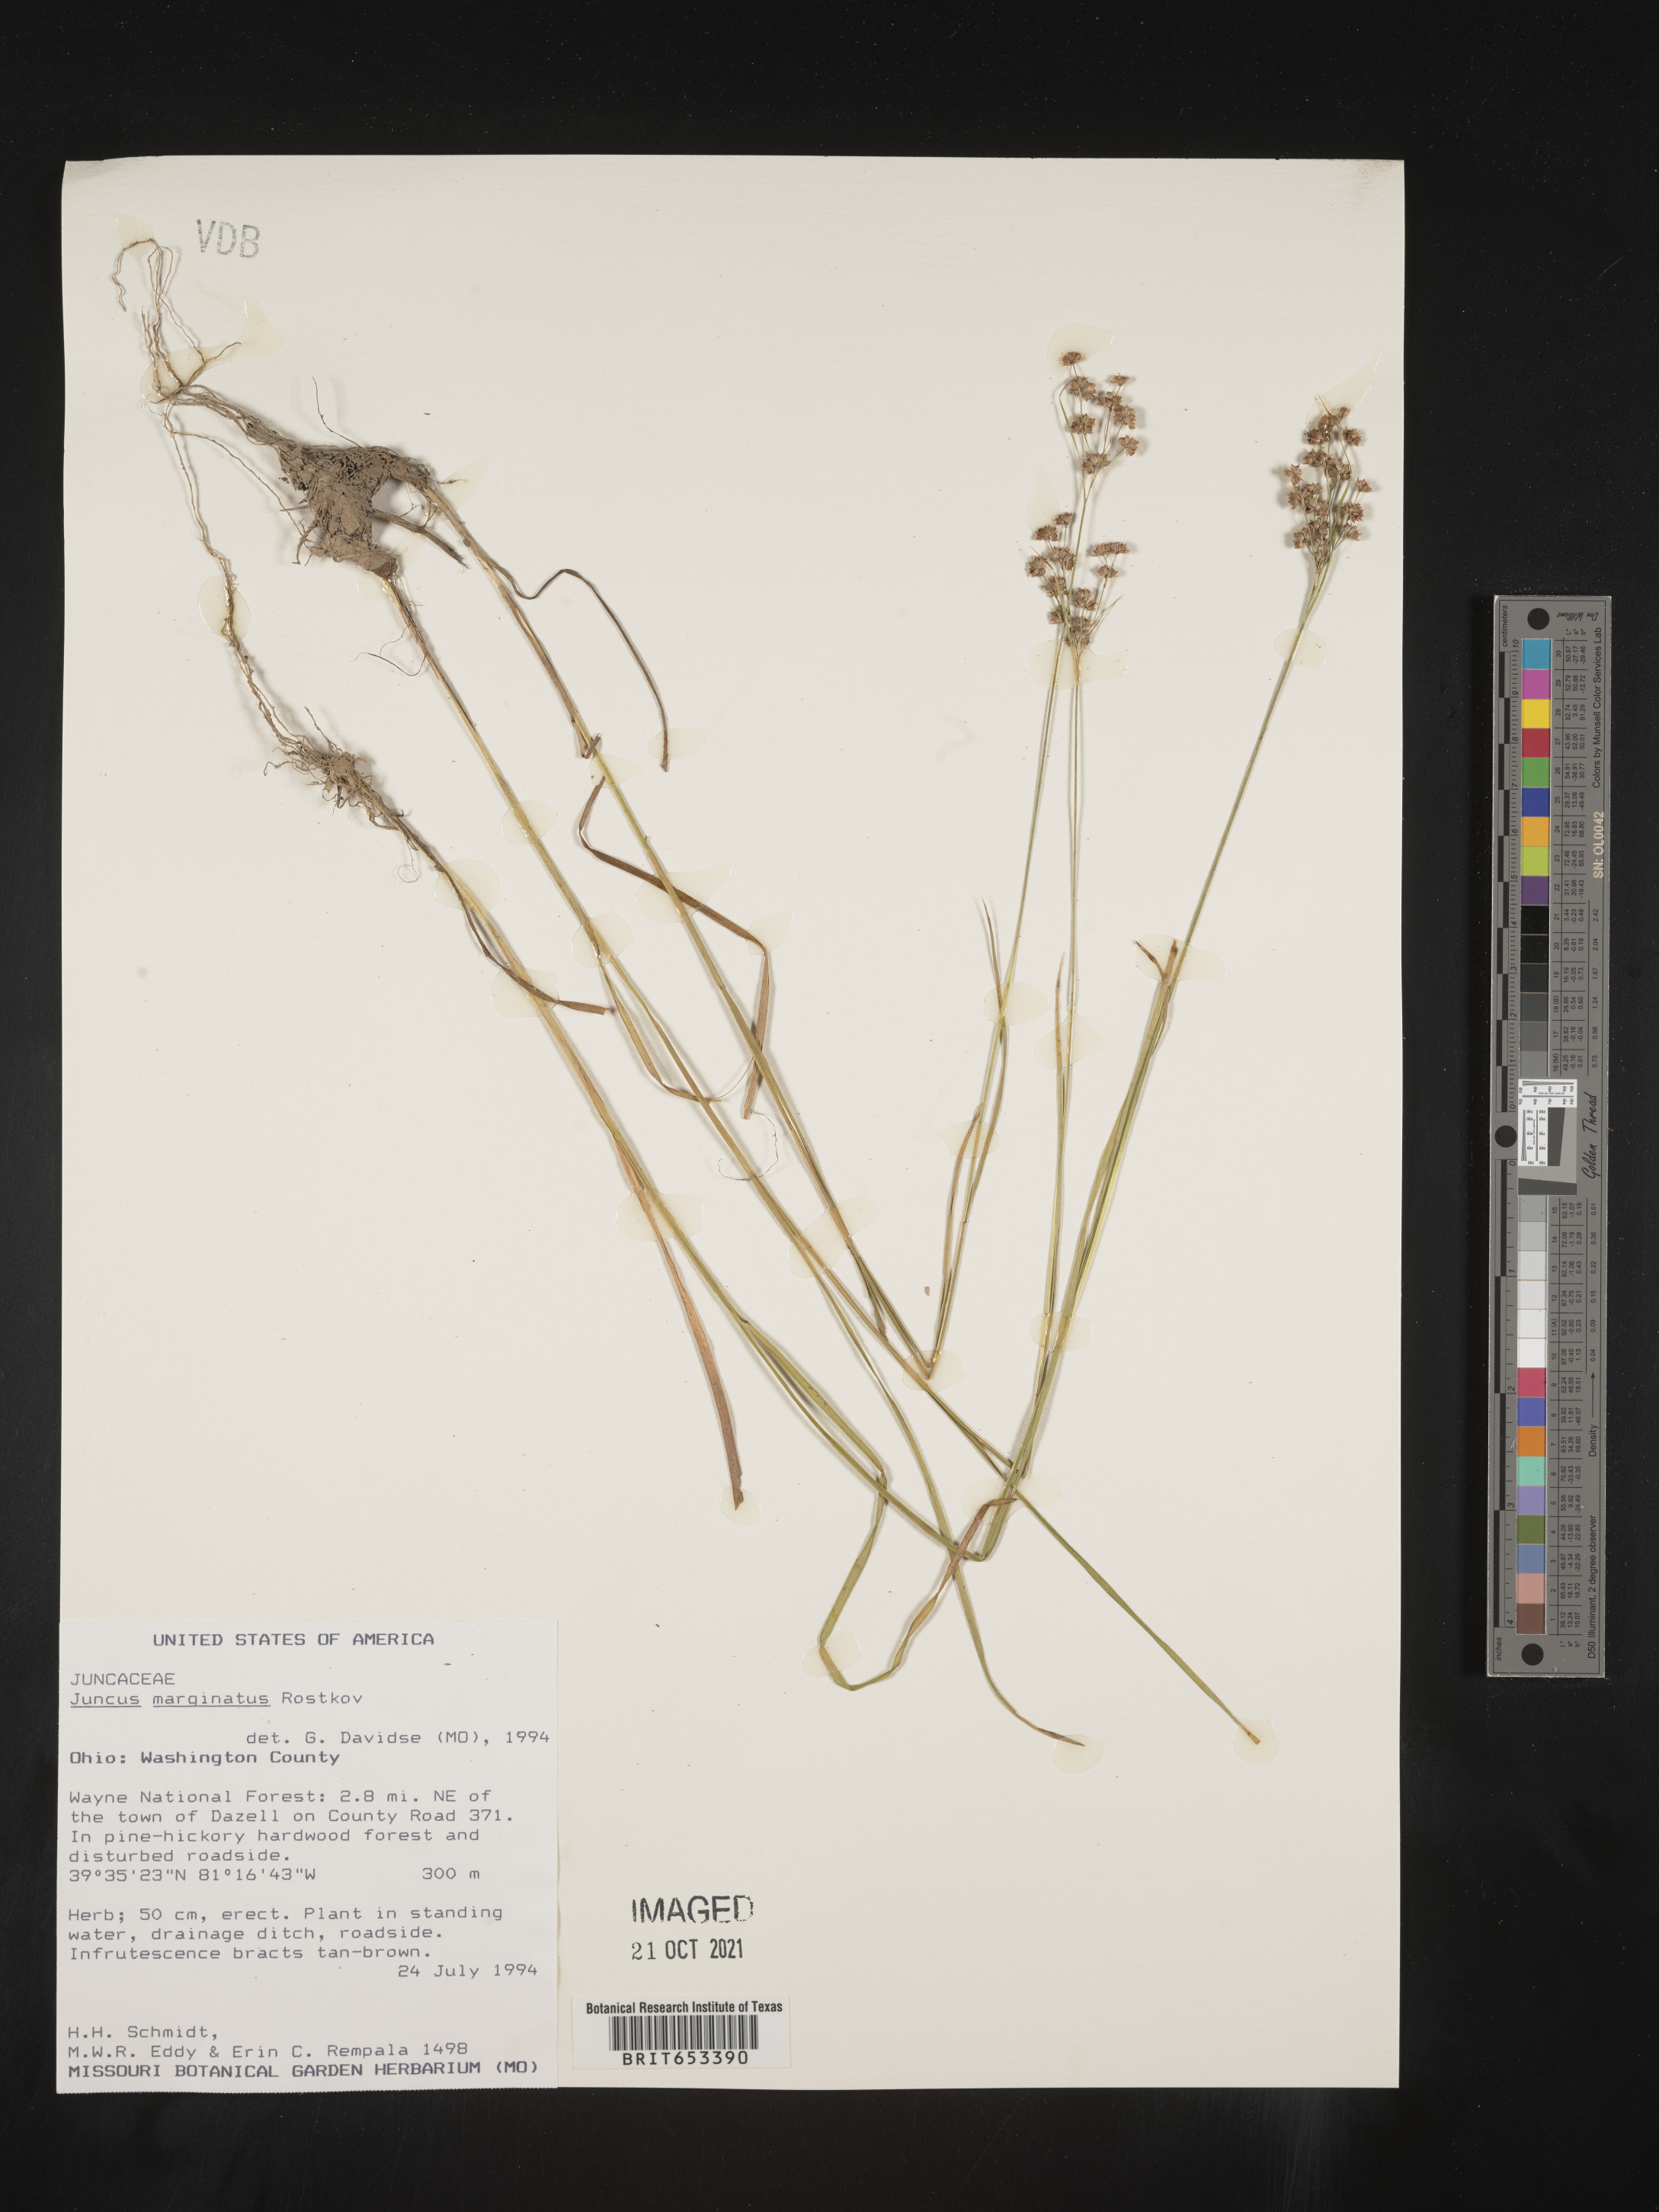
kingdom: Plantae
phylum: Tracheophyta
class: Liliopsida
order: Poales
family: Juncaceae
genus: Juncus
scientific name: Juncus marginatus
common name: Grass-leaf rush
